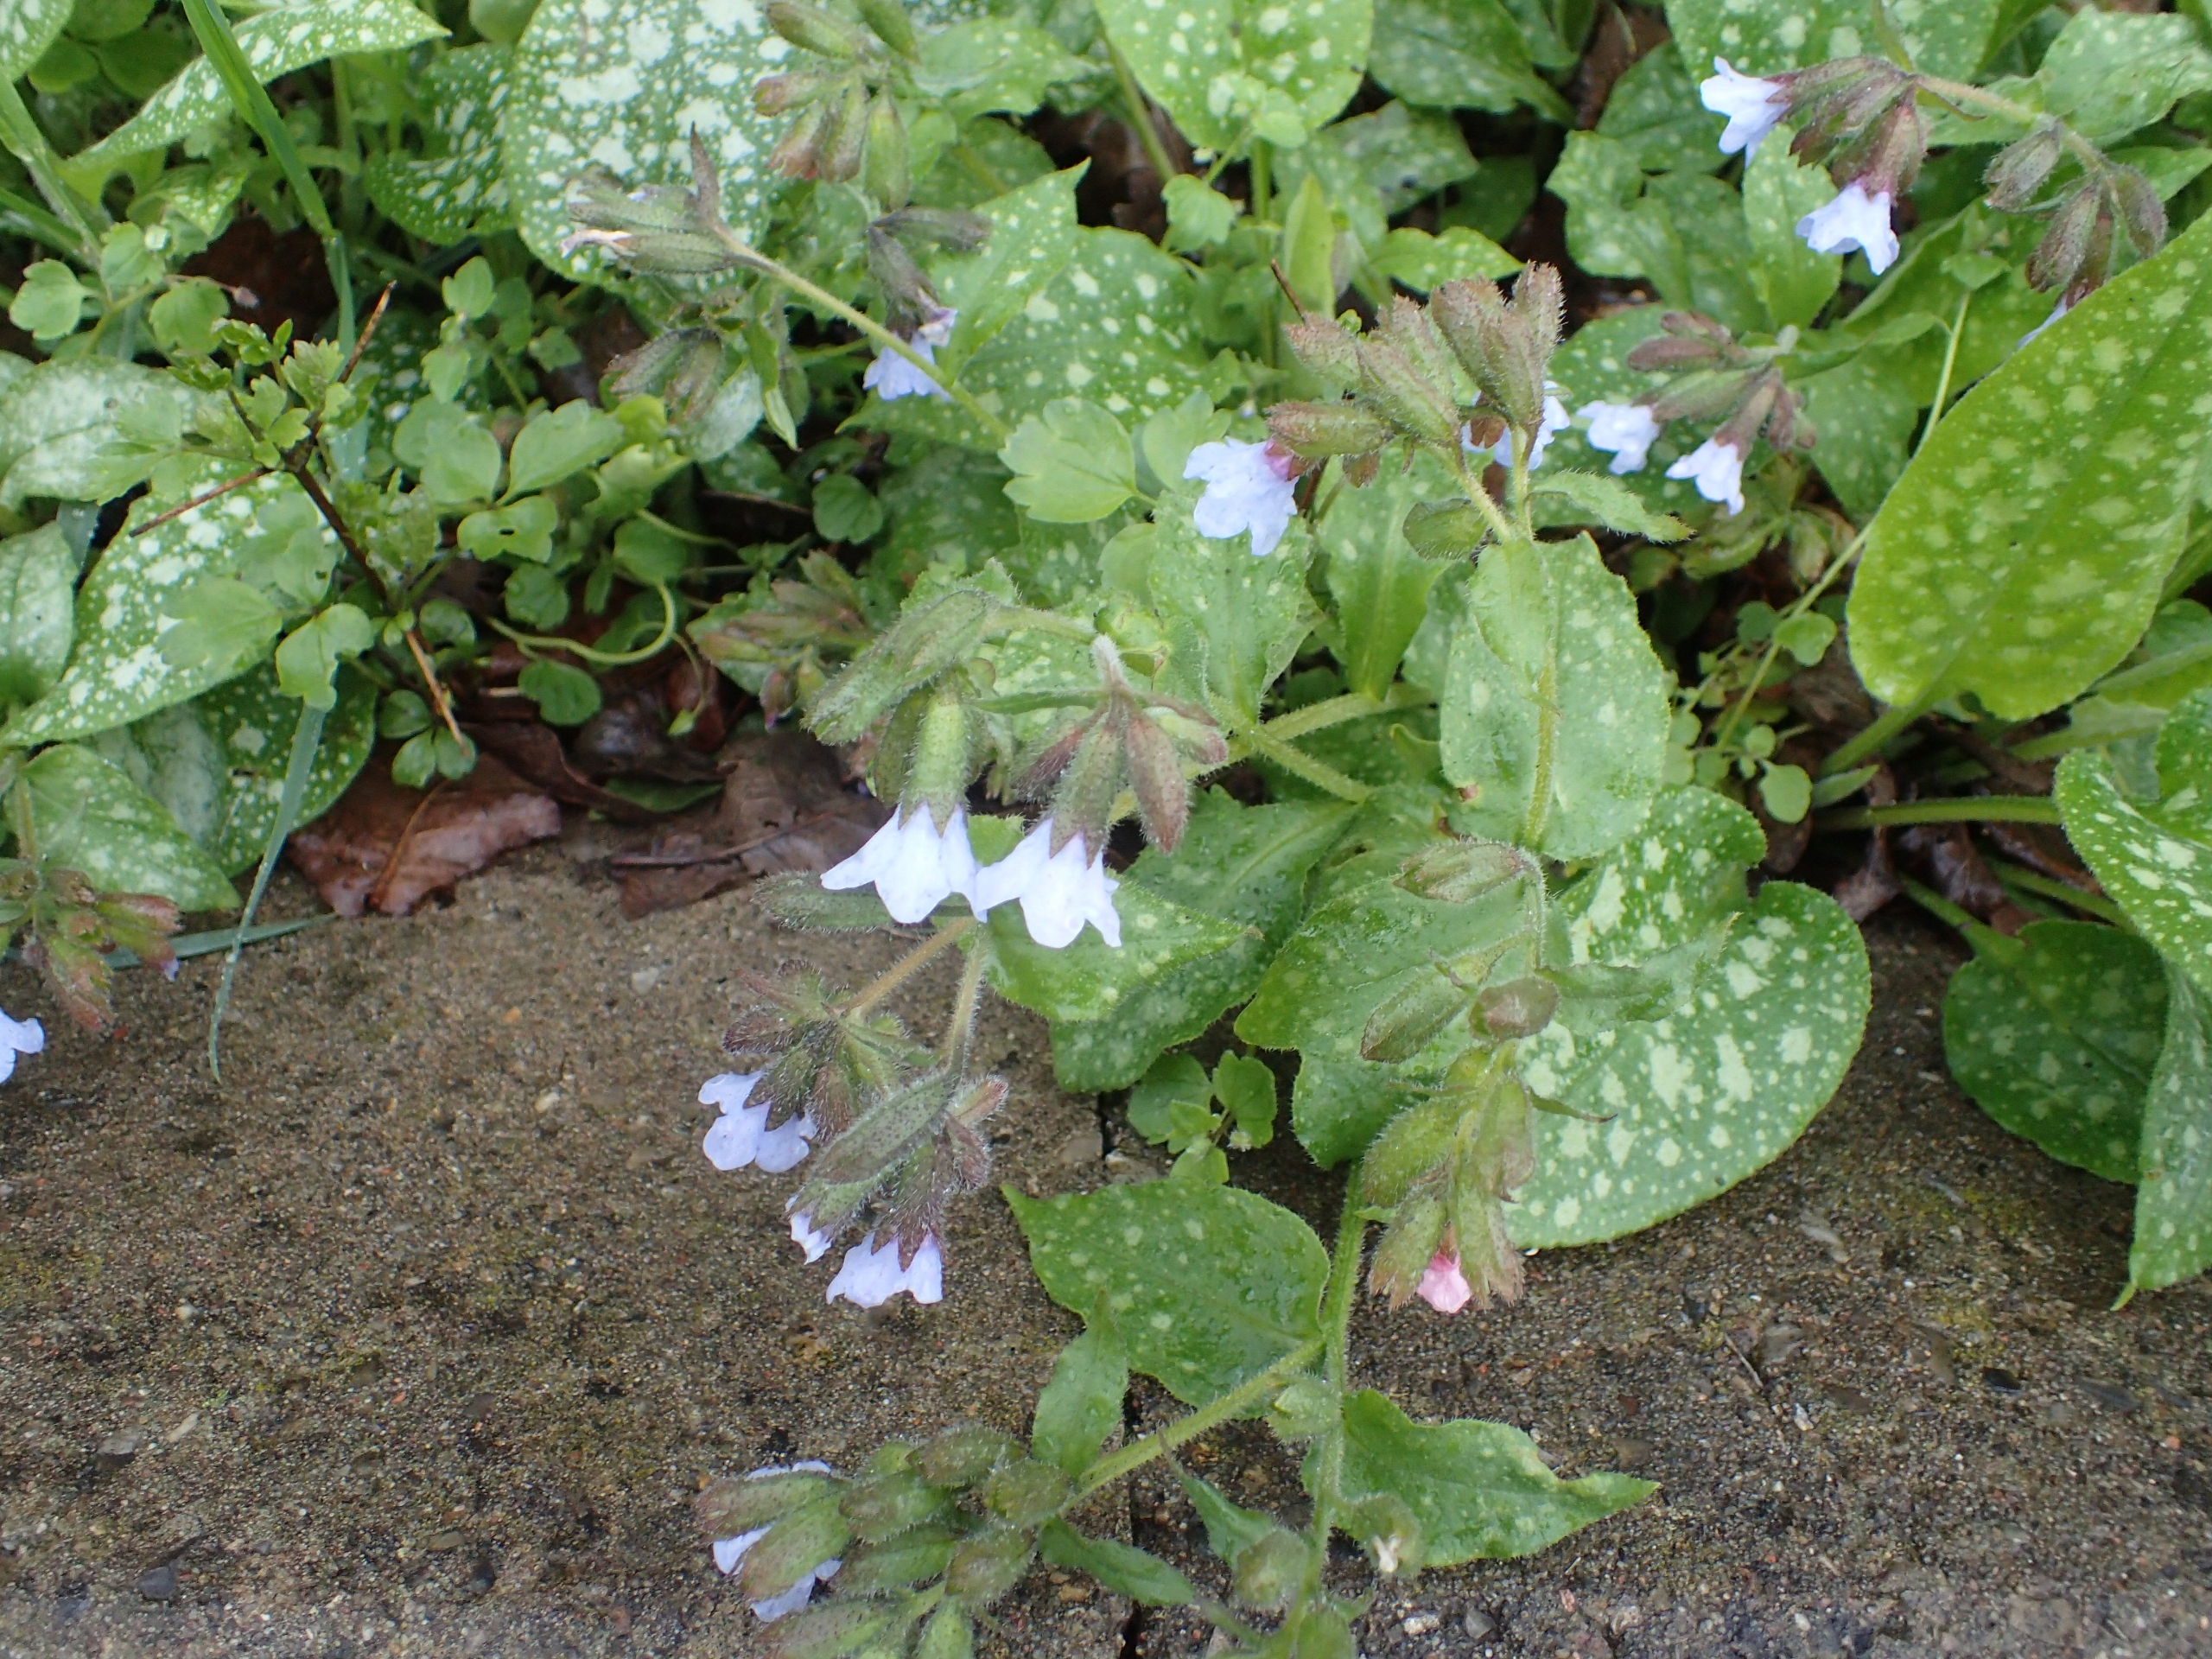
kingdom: Plantae
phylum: Tracheophyta
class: Magnoliopsida
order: Boraginales
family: Boraginaceae
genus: Pulmonaria
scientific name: Pulmonaria officinalis
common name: Hvidplettet lungeurt
